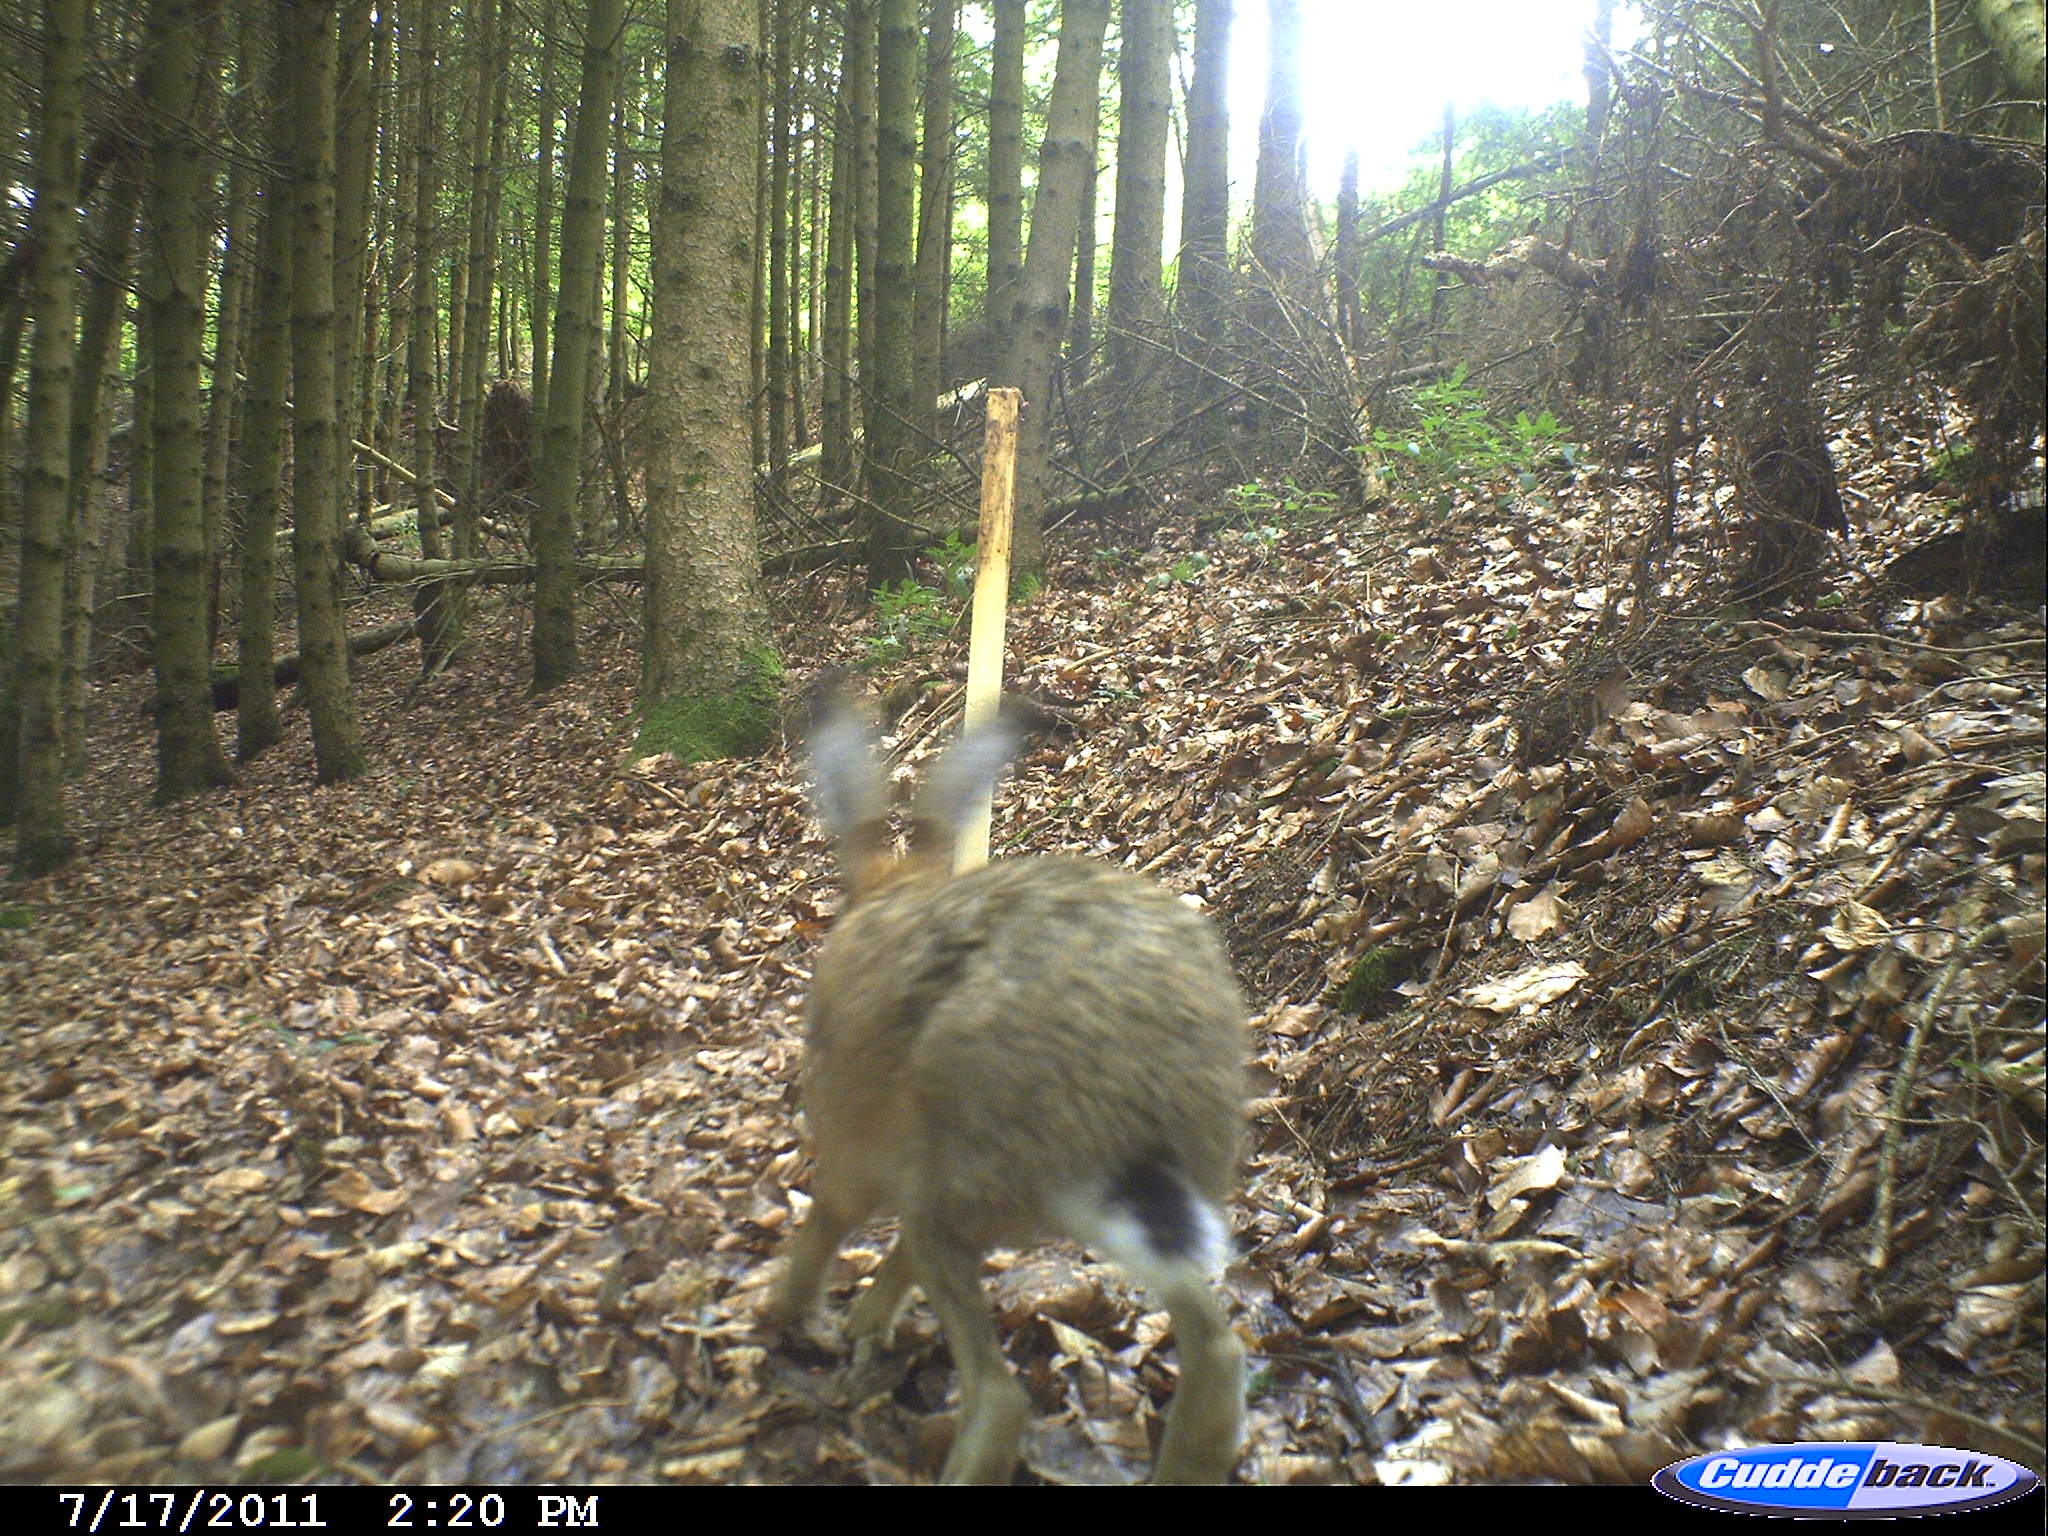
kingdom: Animalia
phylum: Chordata
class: Mammalia
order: Lagomorpha
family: Leporidae
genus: Lepus
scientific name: Lepus europaeus
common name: European hare
